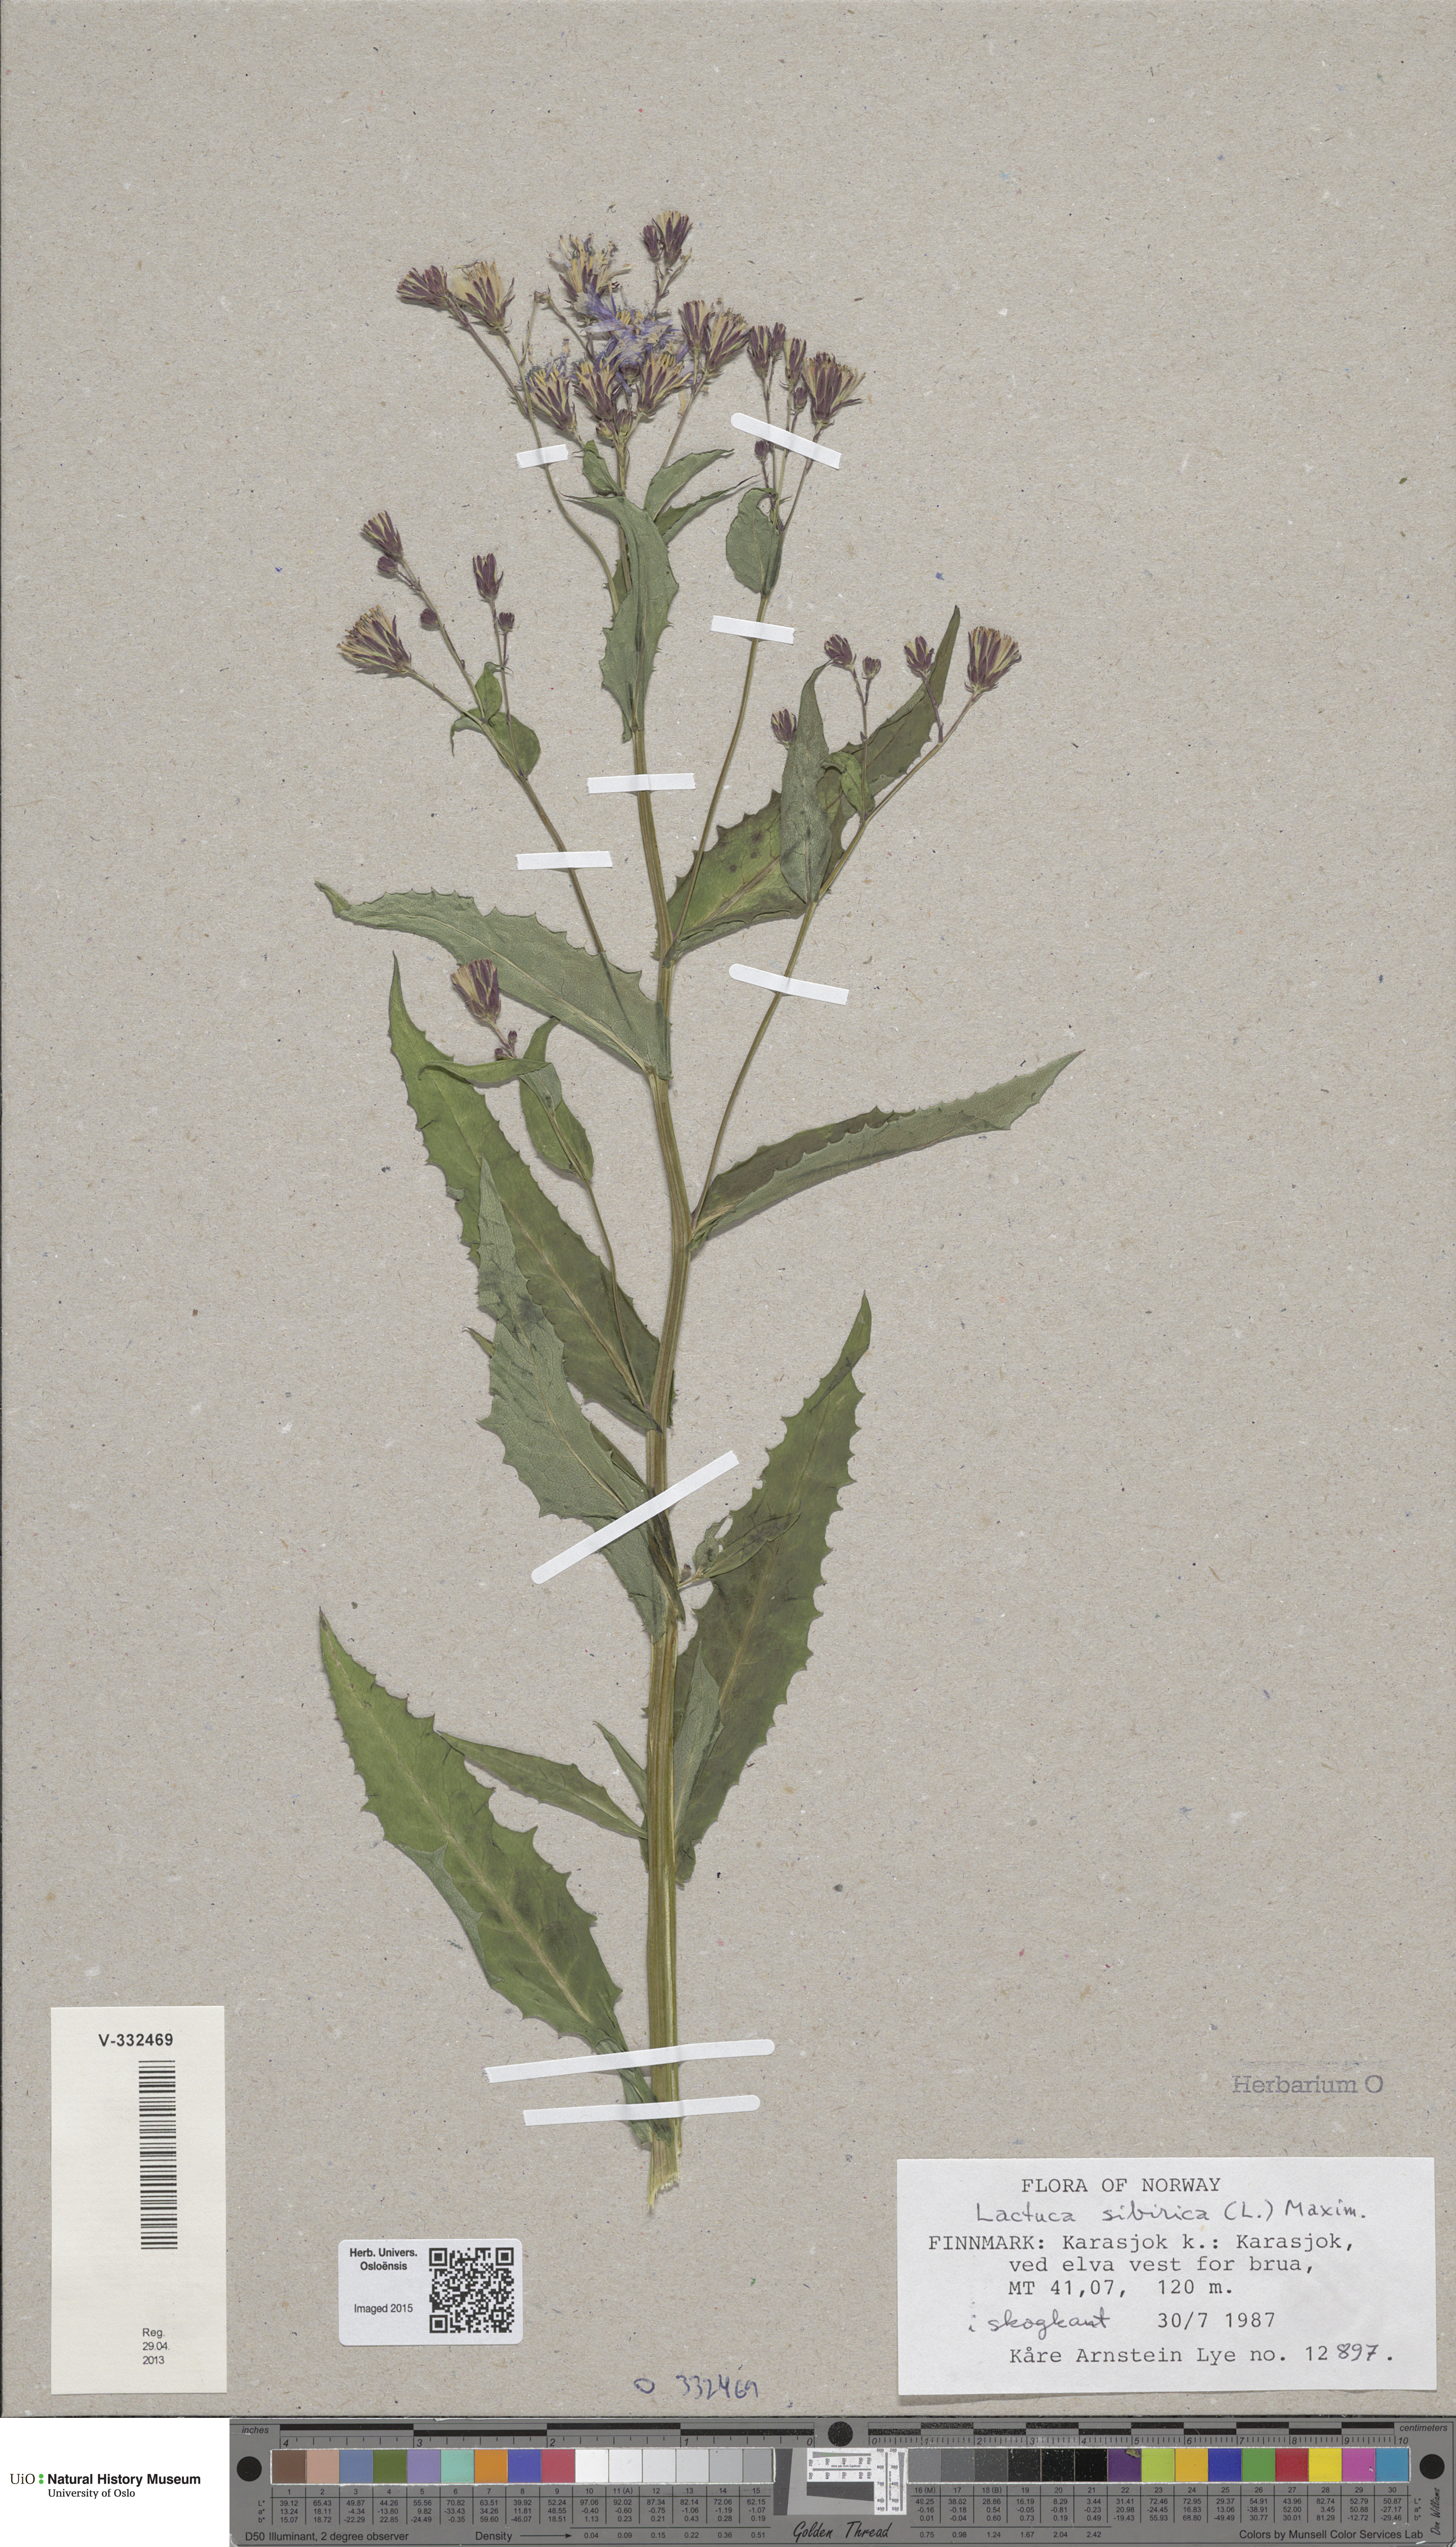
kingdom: Plantae
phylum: Tracheophyta
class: Magnoliopsida
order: Asterales
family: Asteraceae
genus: Lactuca
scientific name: Lactuca sibirica
